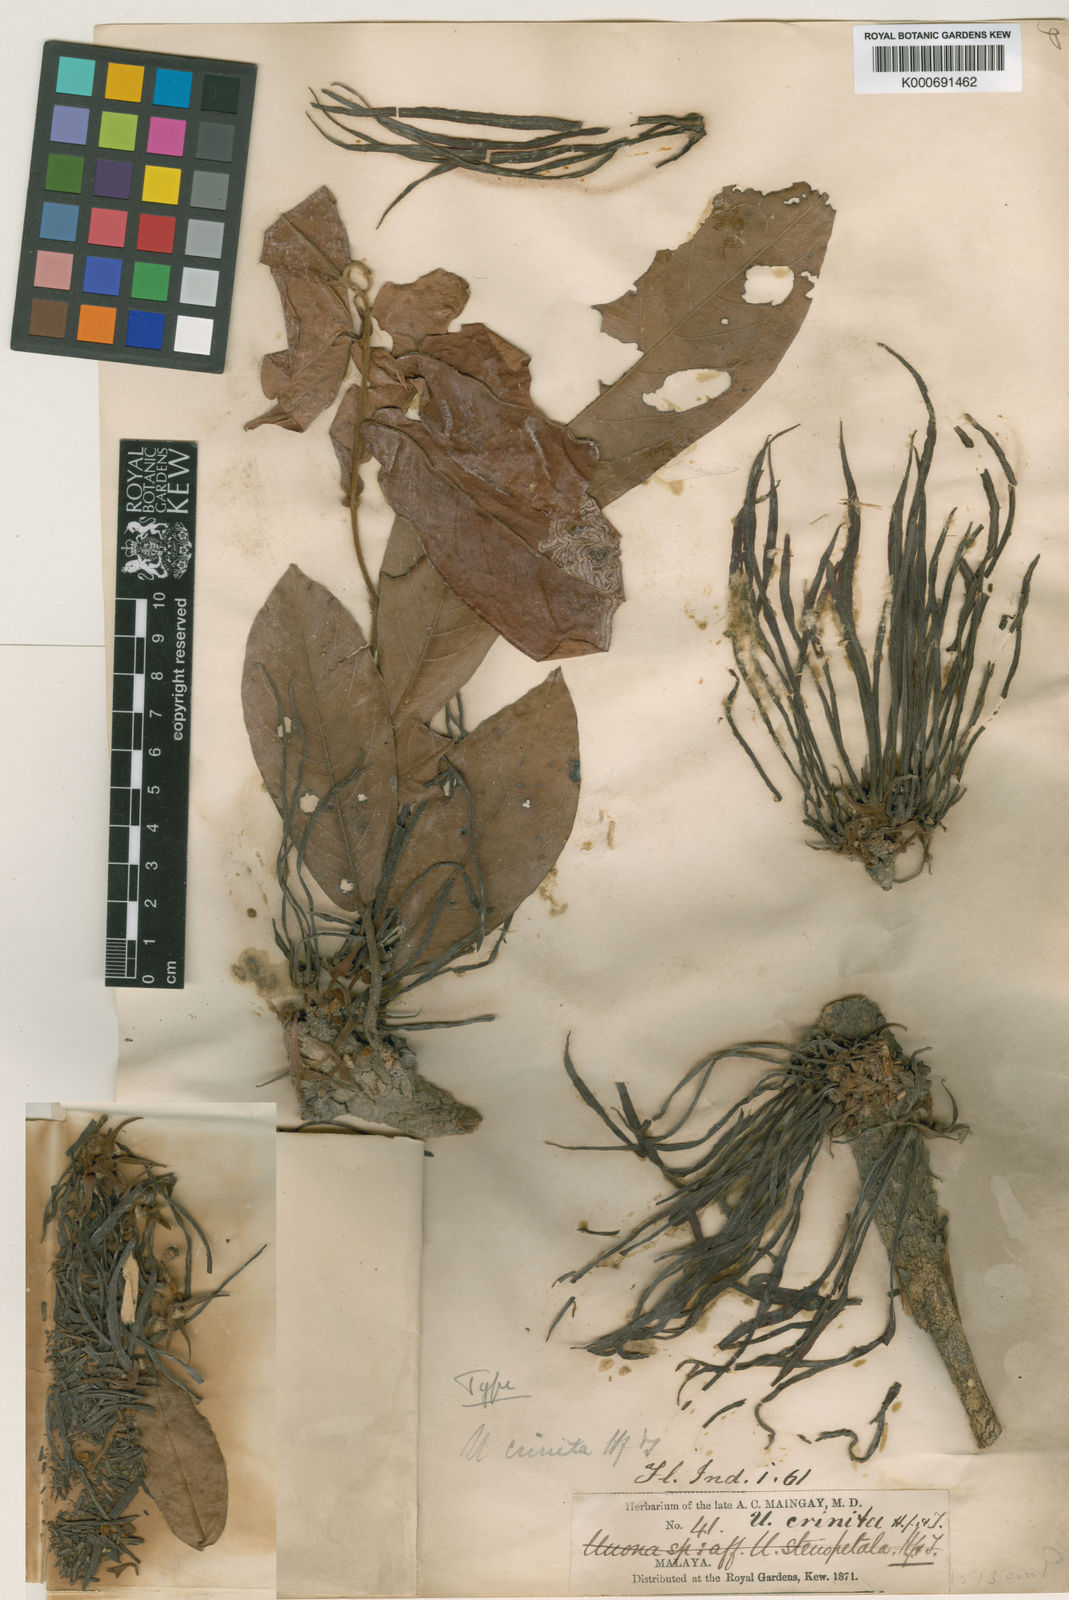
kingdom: Plantae
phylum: Tracheophyta
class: Magnoliopsida
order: Magnoliales
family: Annonaceae
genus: Polyalthia
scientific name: Polyalthia stenopetala
